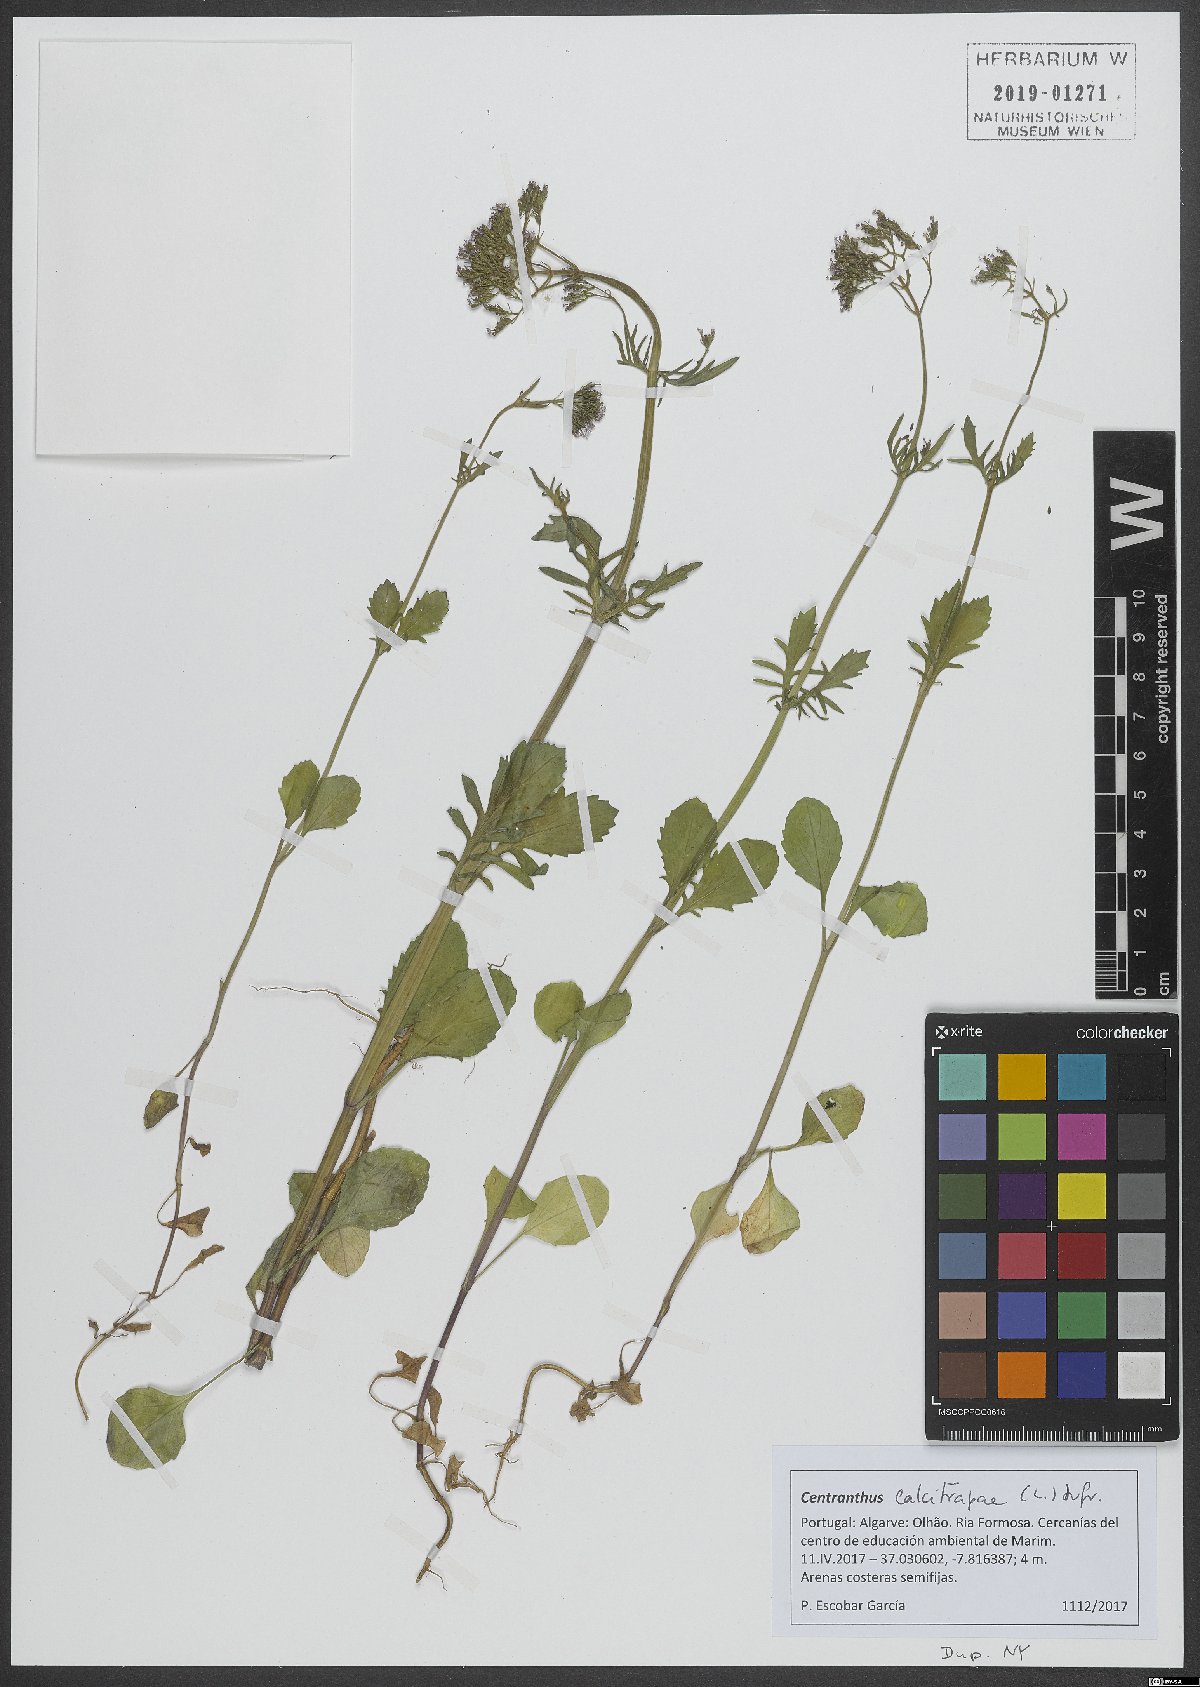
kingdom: Plantae
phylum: Tracheophyta
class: Magnoliopsida
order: Dipsacales
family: Caprifoliaceae
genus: Centranthus
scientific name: Centranthus calcitrapae
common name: Annual valerian
